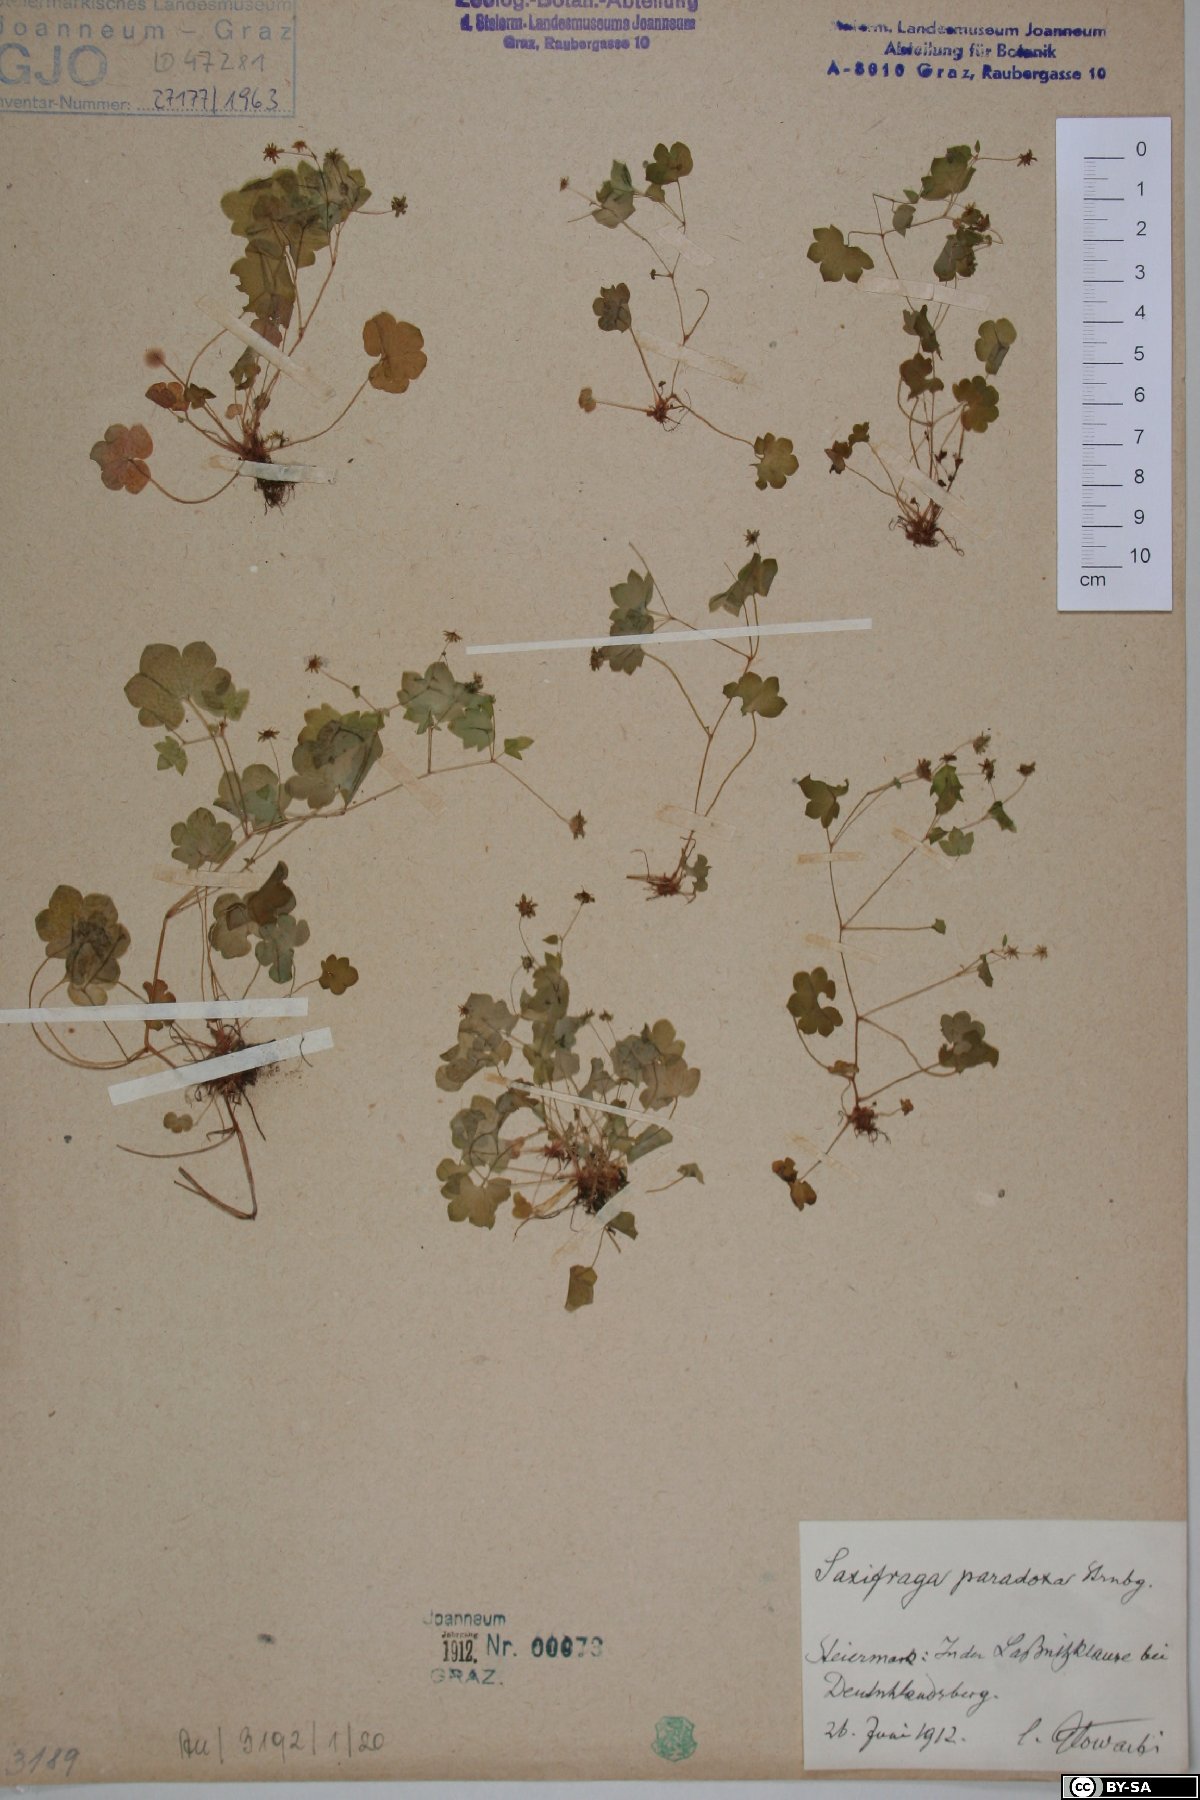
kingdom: Plantae
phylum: Tracheophyta
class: Magnoliopsida
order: Saxifragales
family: Saxifragaceae
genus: Saxifraga
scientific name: Saxifraga paradoxa
